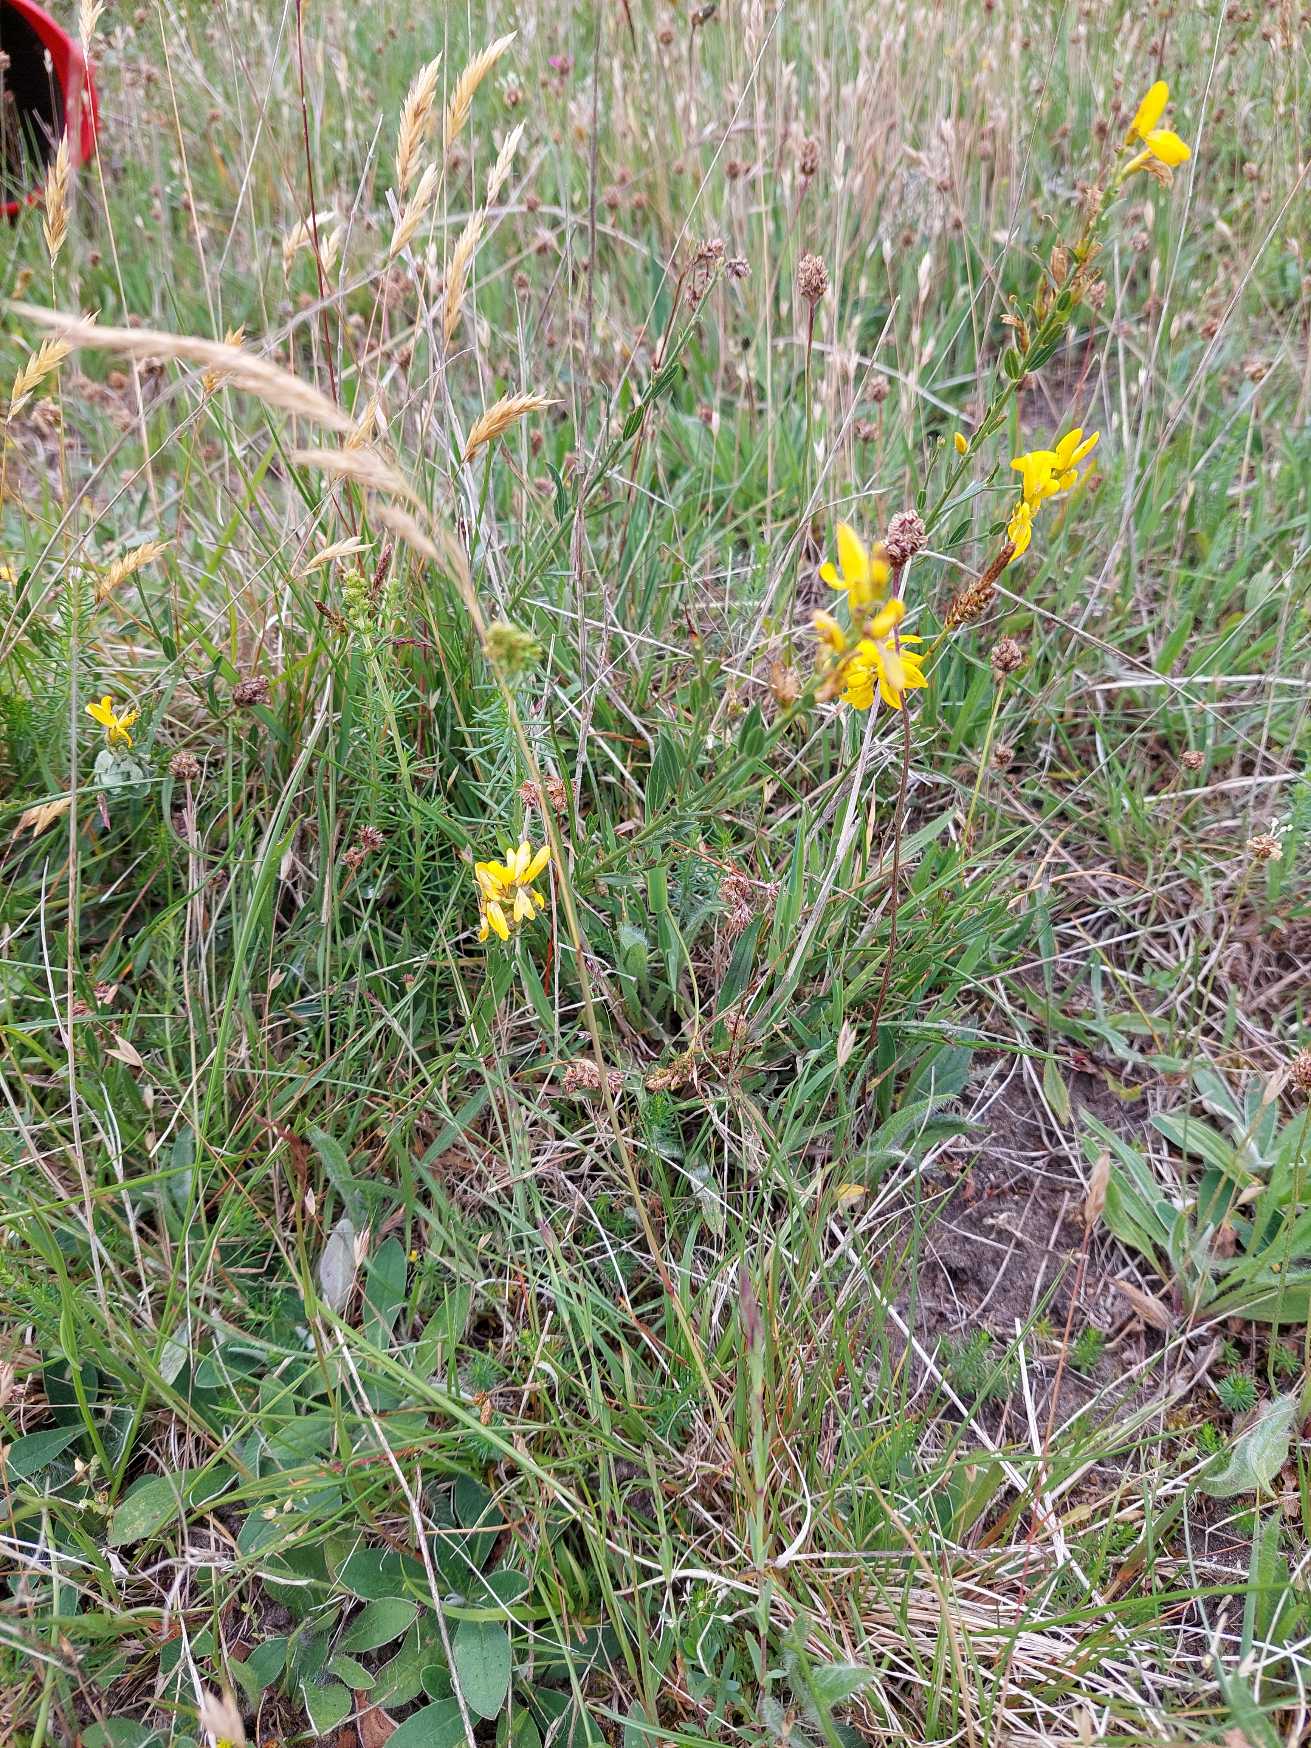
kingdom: Plantae
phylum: Tracheophyta
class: Magnoliopsida
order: Fabales
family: Fabaceae
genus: Genista
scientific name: Genista tinctoria
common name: Farve-visse
